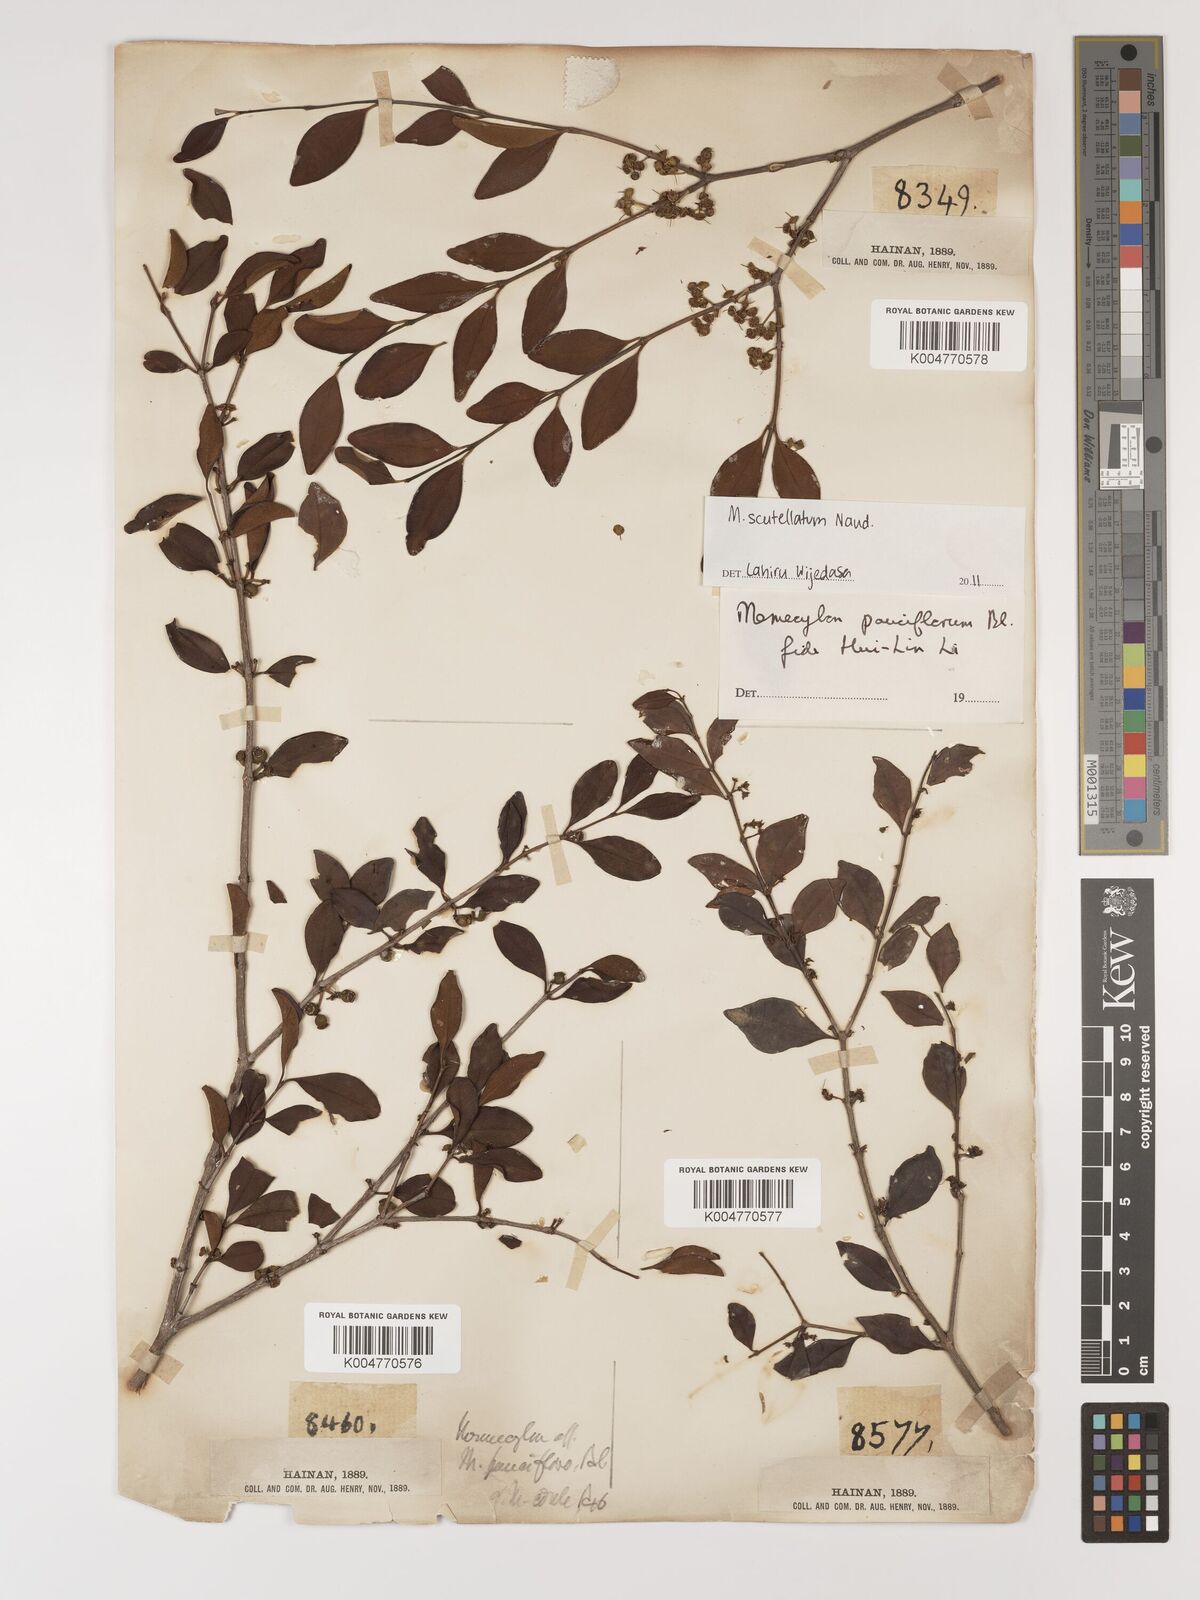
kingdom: Plantae
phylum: Tracheophyta
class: Magnoliopsida
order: Myrtales
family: Melastomataceae
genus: Memecylon
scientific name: Memecylon scutellatum
